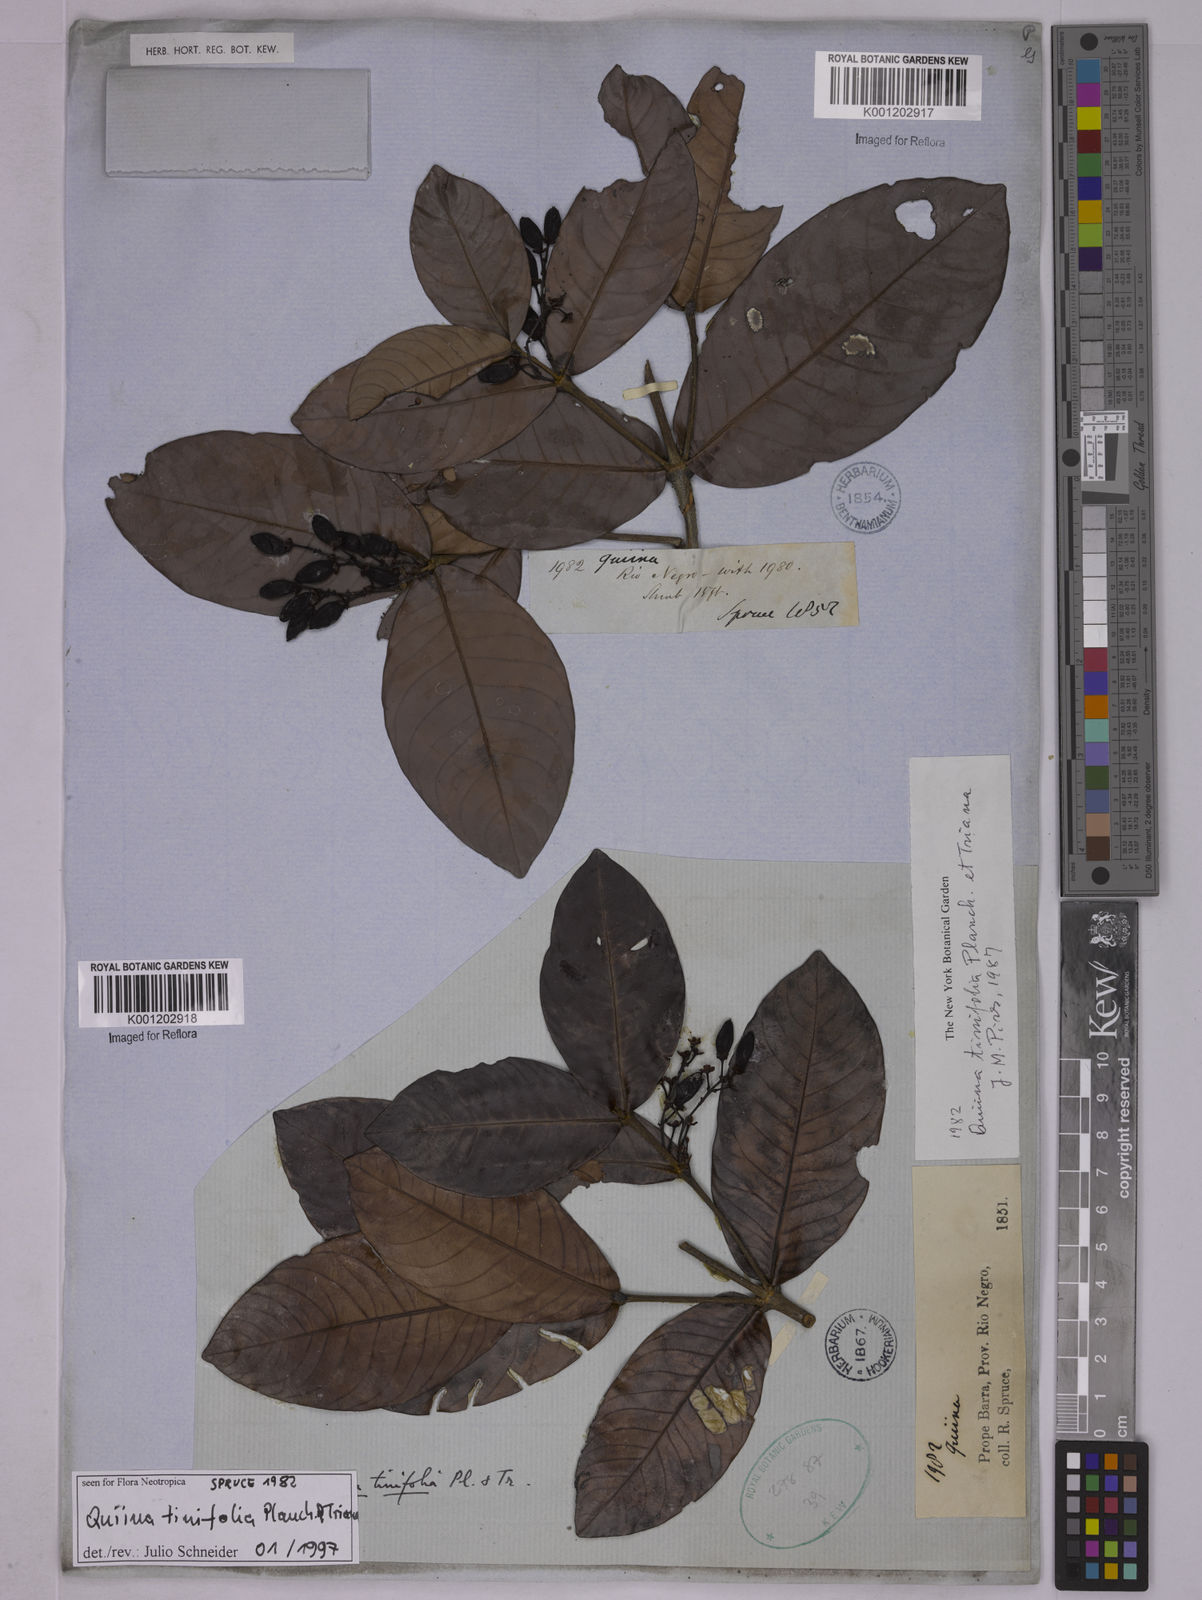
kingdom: Plantae
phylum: Tracheophyta
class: Magnoliopsida
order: Malpighiales
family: Quiinaceae
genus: Quiina
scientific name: Quiina tinifolia
